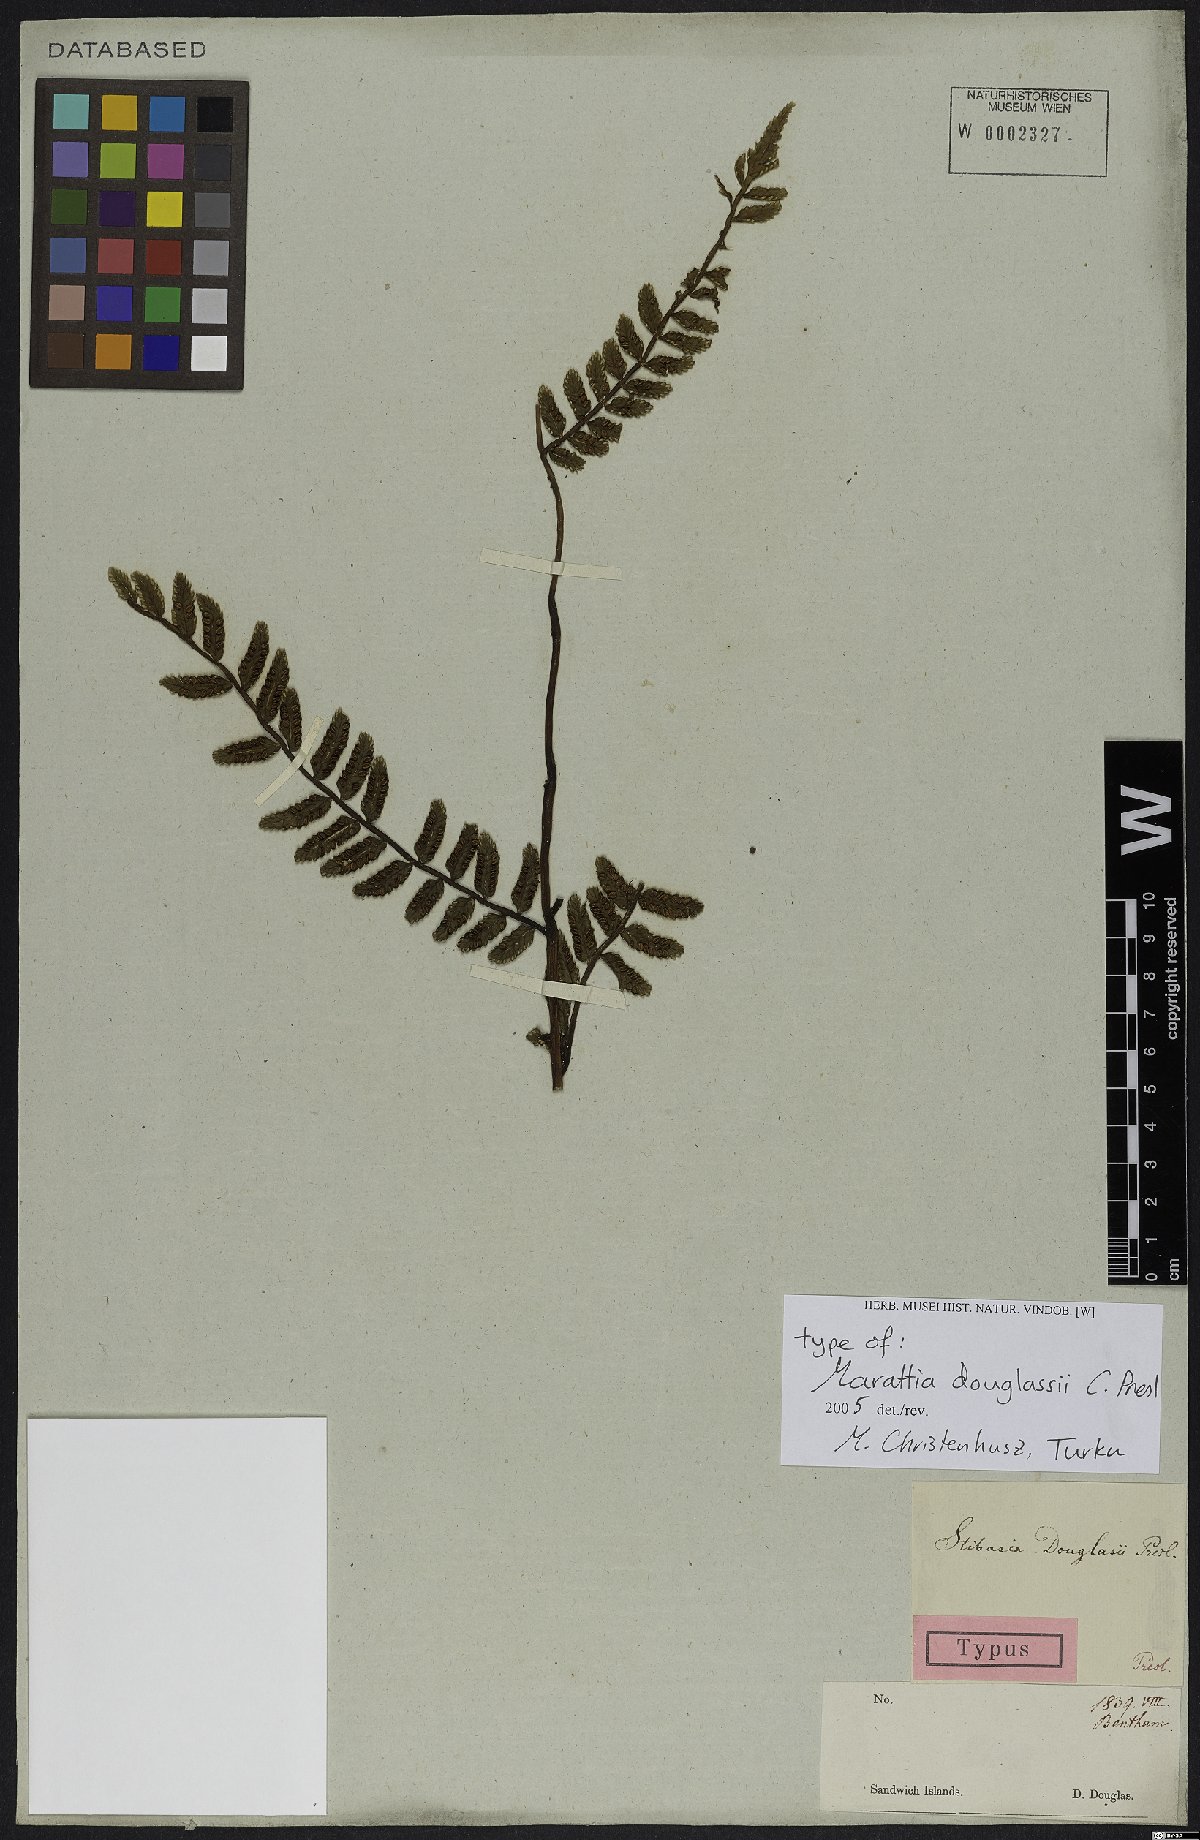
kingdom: Plantae
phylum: Tracheophyta
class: Polypodiopsida
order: Marattiales
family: Marattiaceae
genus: Marattia
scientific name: Marattia douglasii
